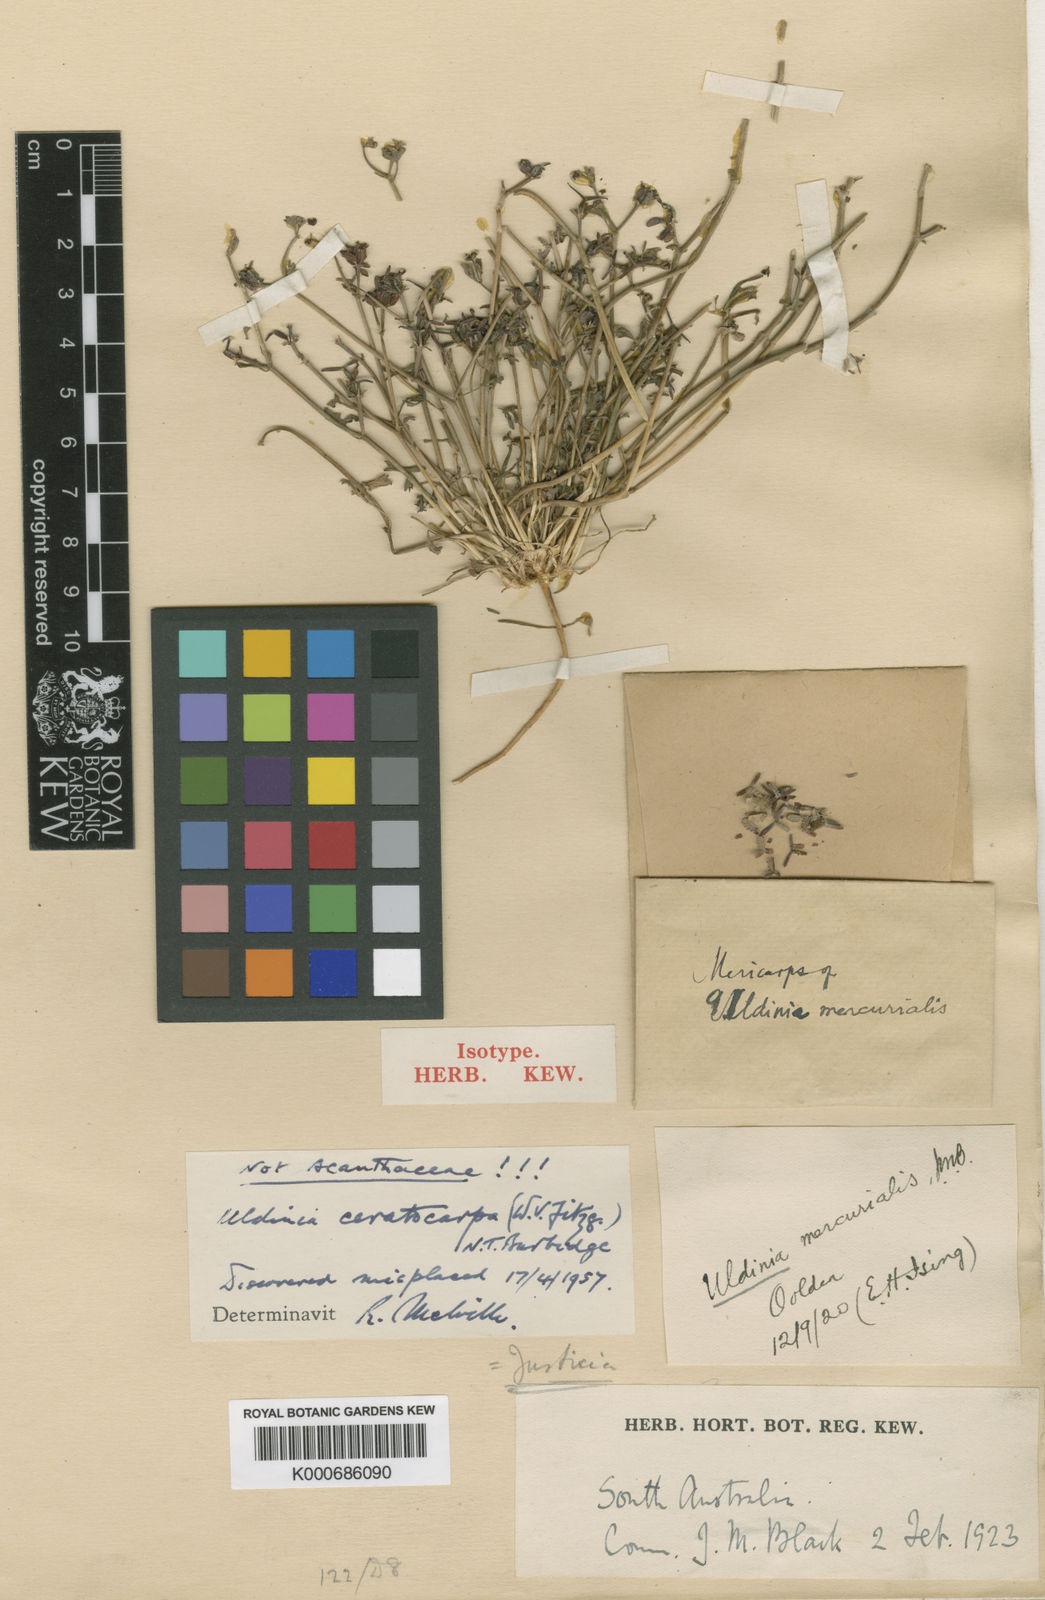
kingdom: Plantae
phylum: Tracheophyta
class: Magnoliopsida
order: Apiales
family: Araliaceae
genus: Trachymene
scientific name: Trachymene ceratocarpa
